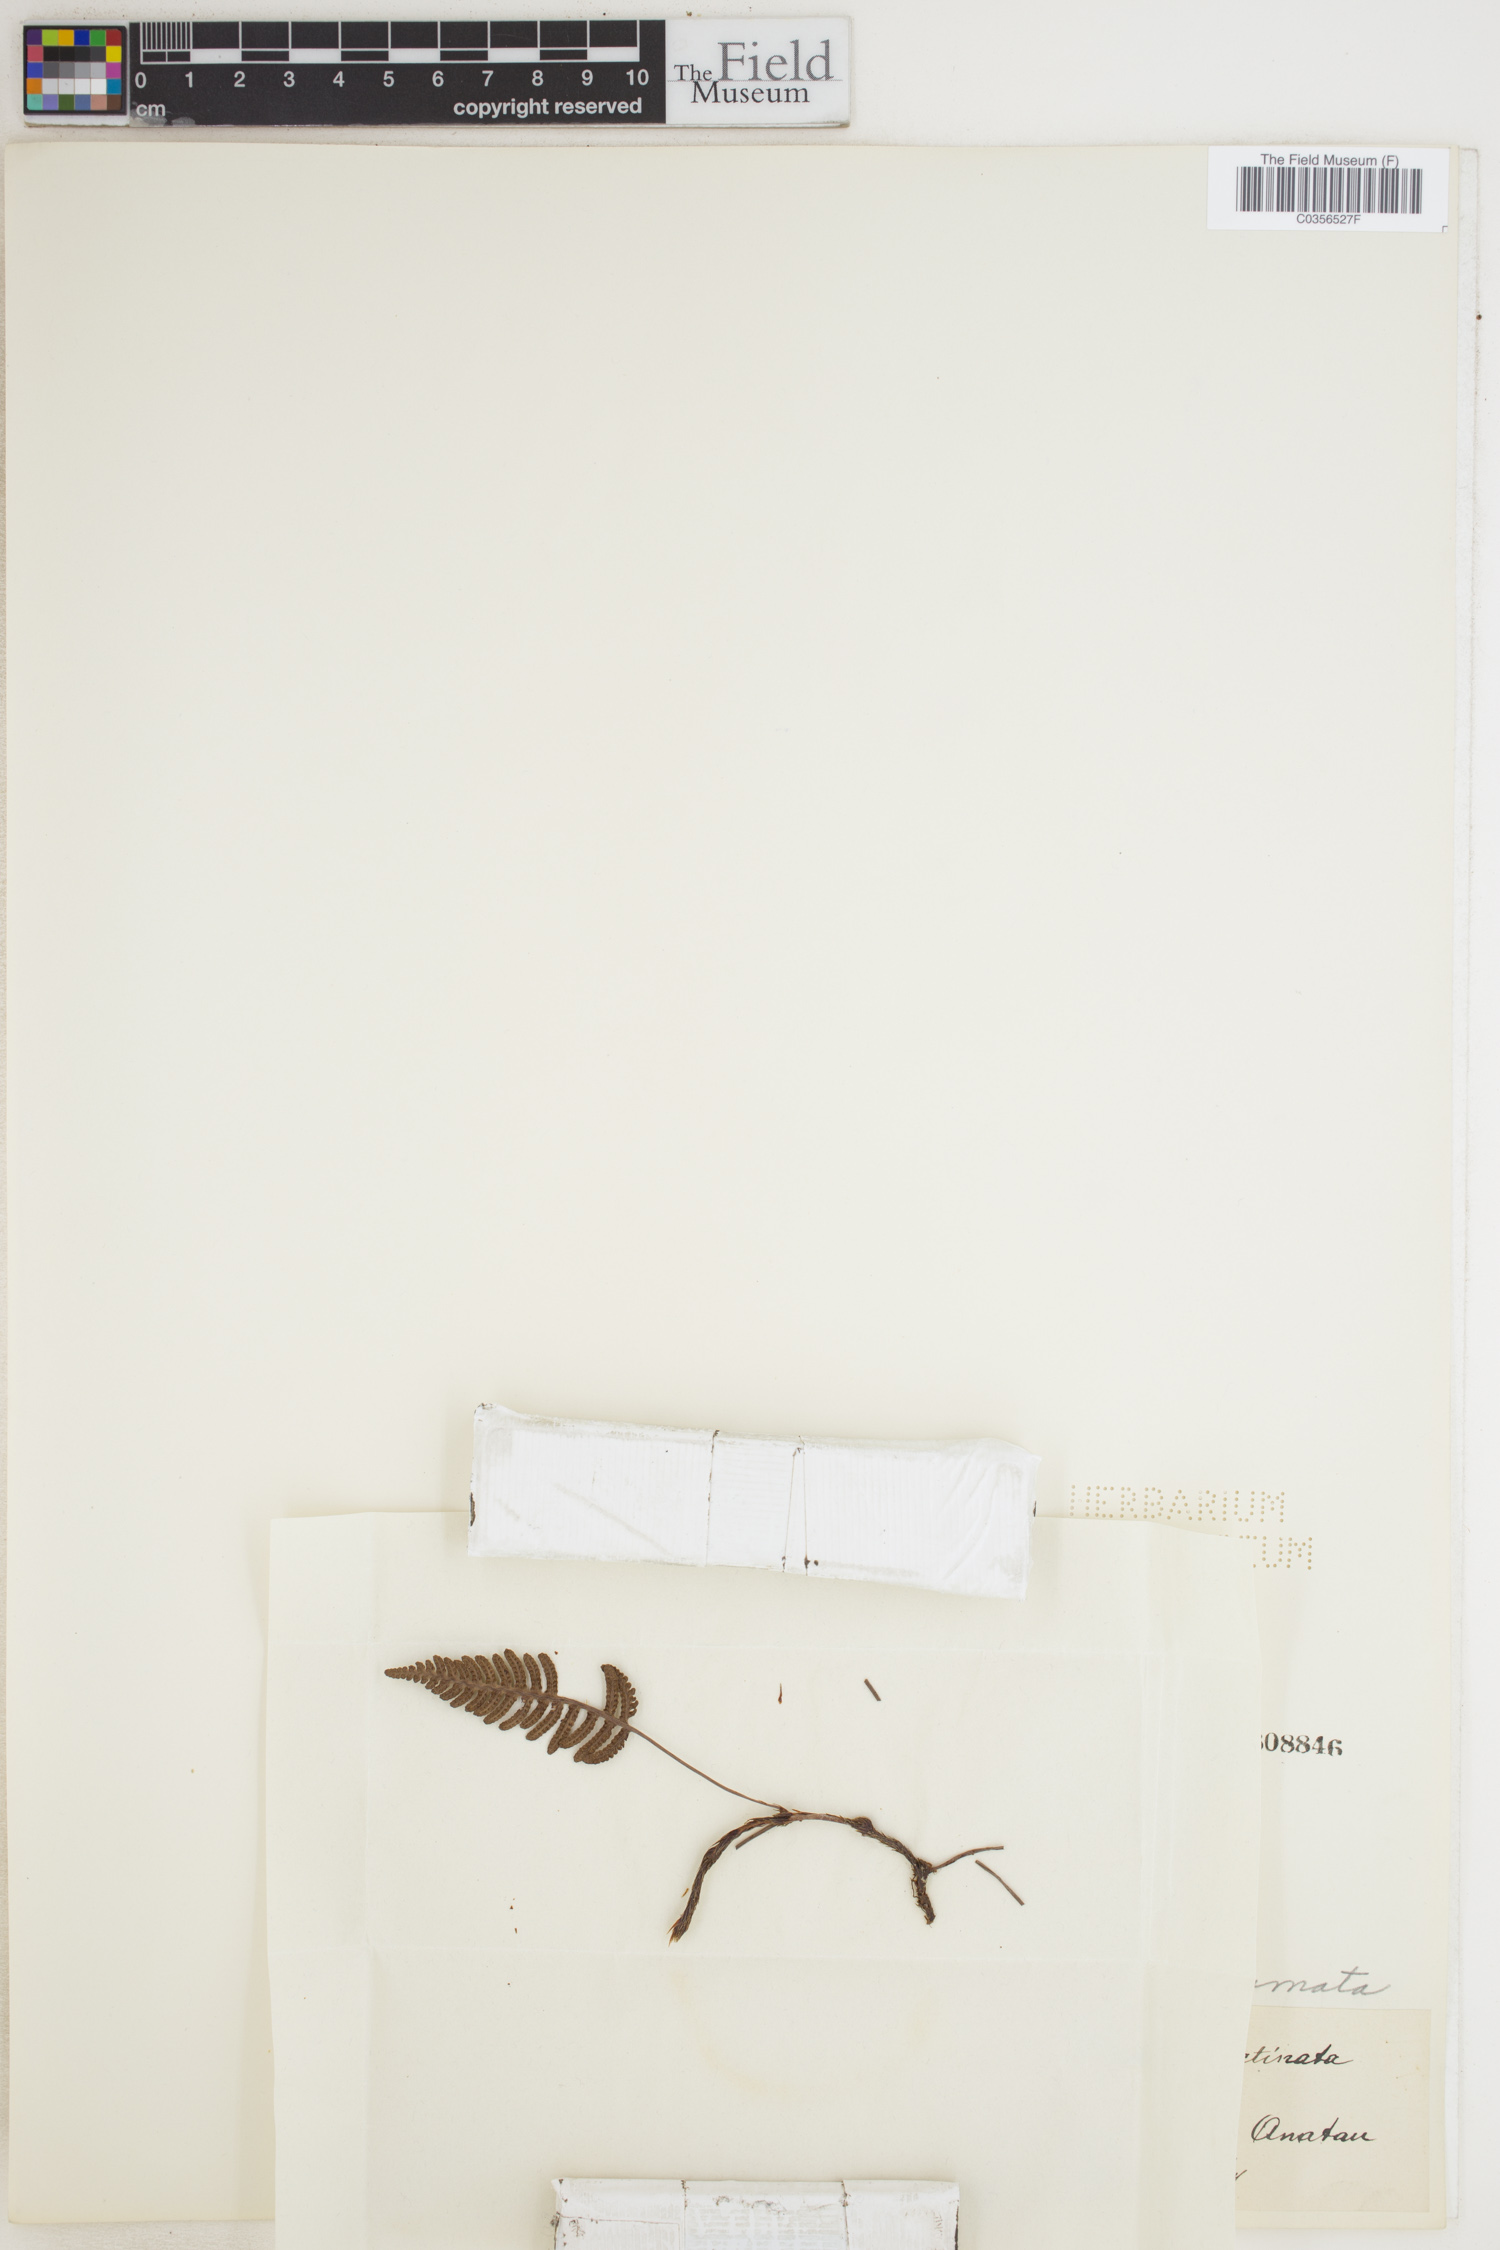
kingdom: Plantae
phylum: Tracheophyta
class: Polypodiopsida
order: Polypodiales
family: Davalliaceae
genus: Davallia
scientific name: Davallia pectinata
